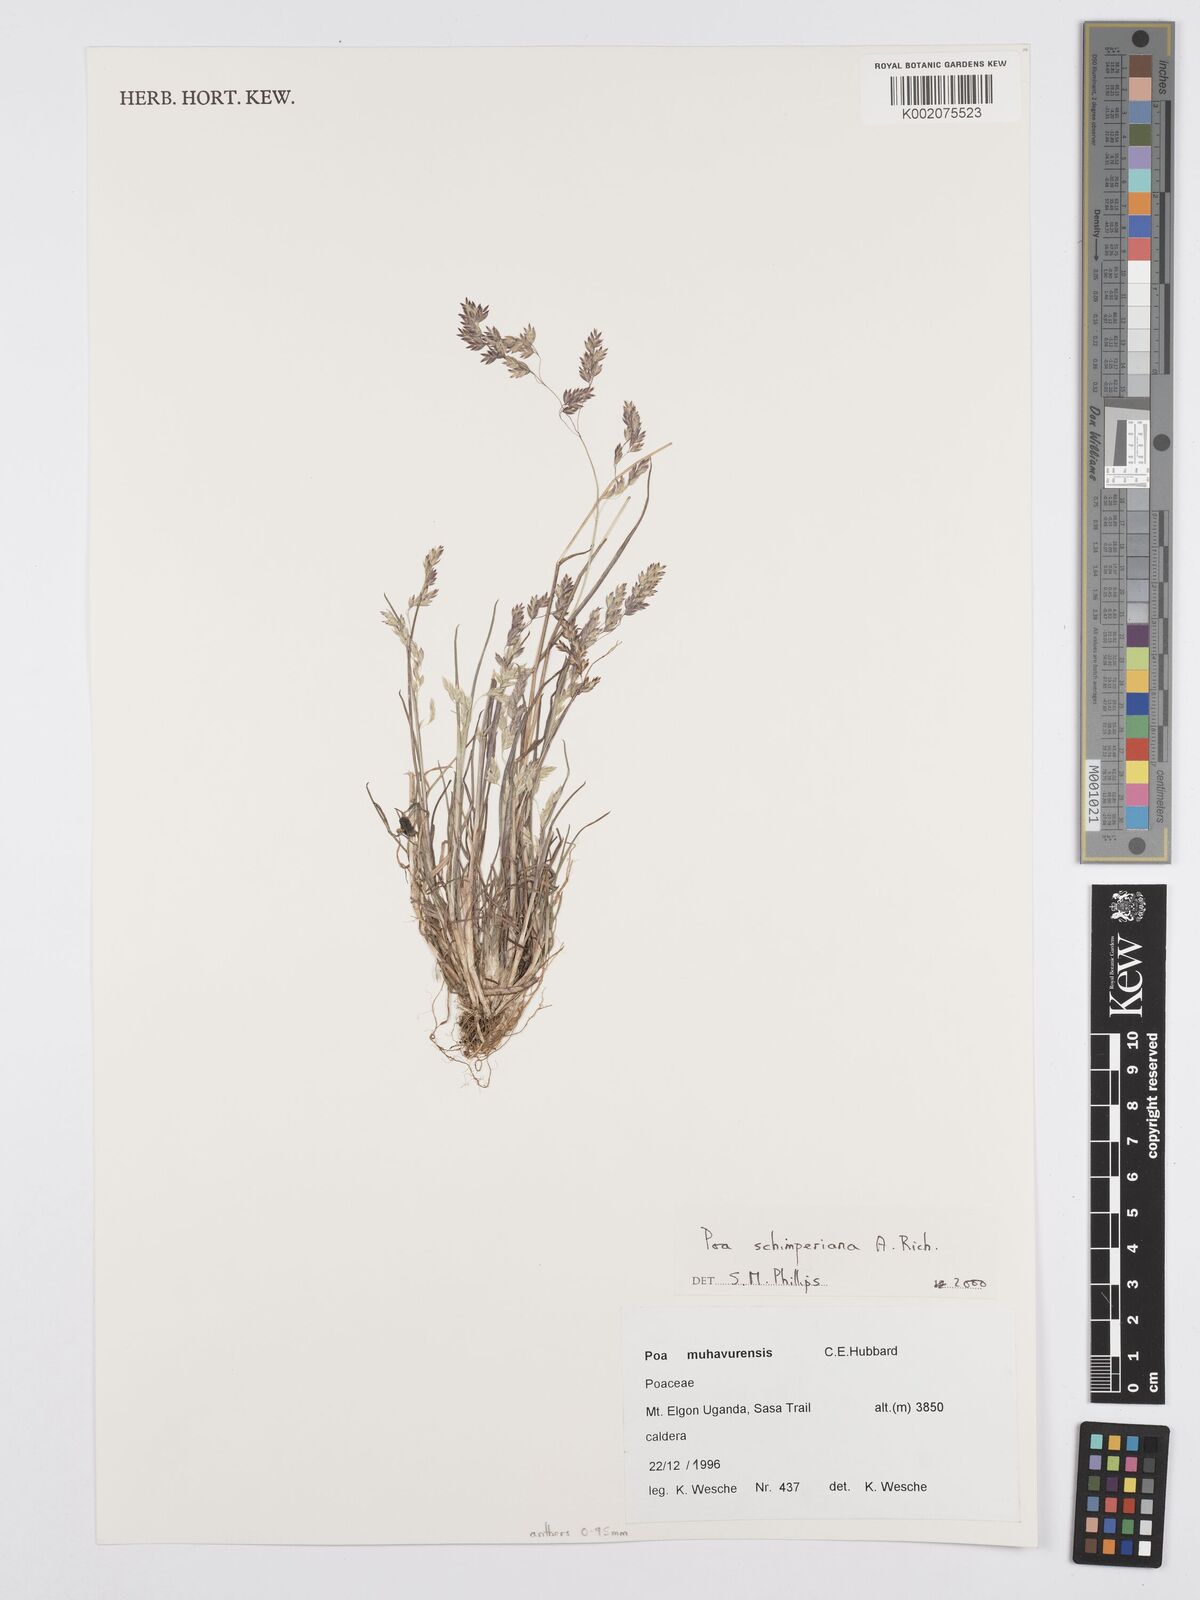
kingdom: Plantae
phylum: Tracheophyta
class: Liliopsida
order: Poales
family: Poaceae
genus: Poa
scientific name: Poa schimperiana
